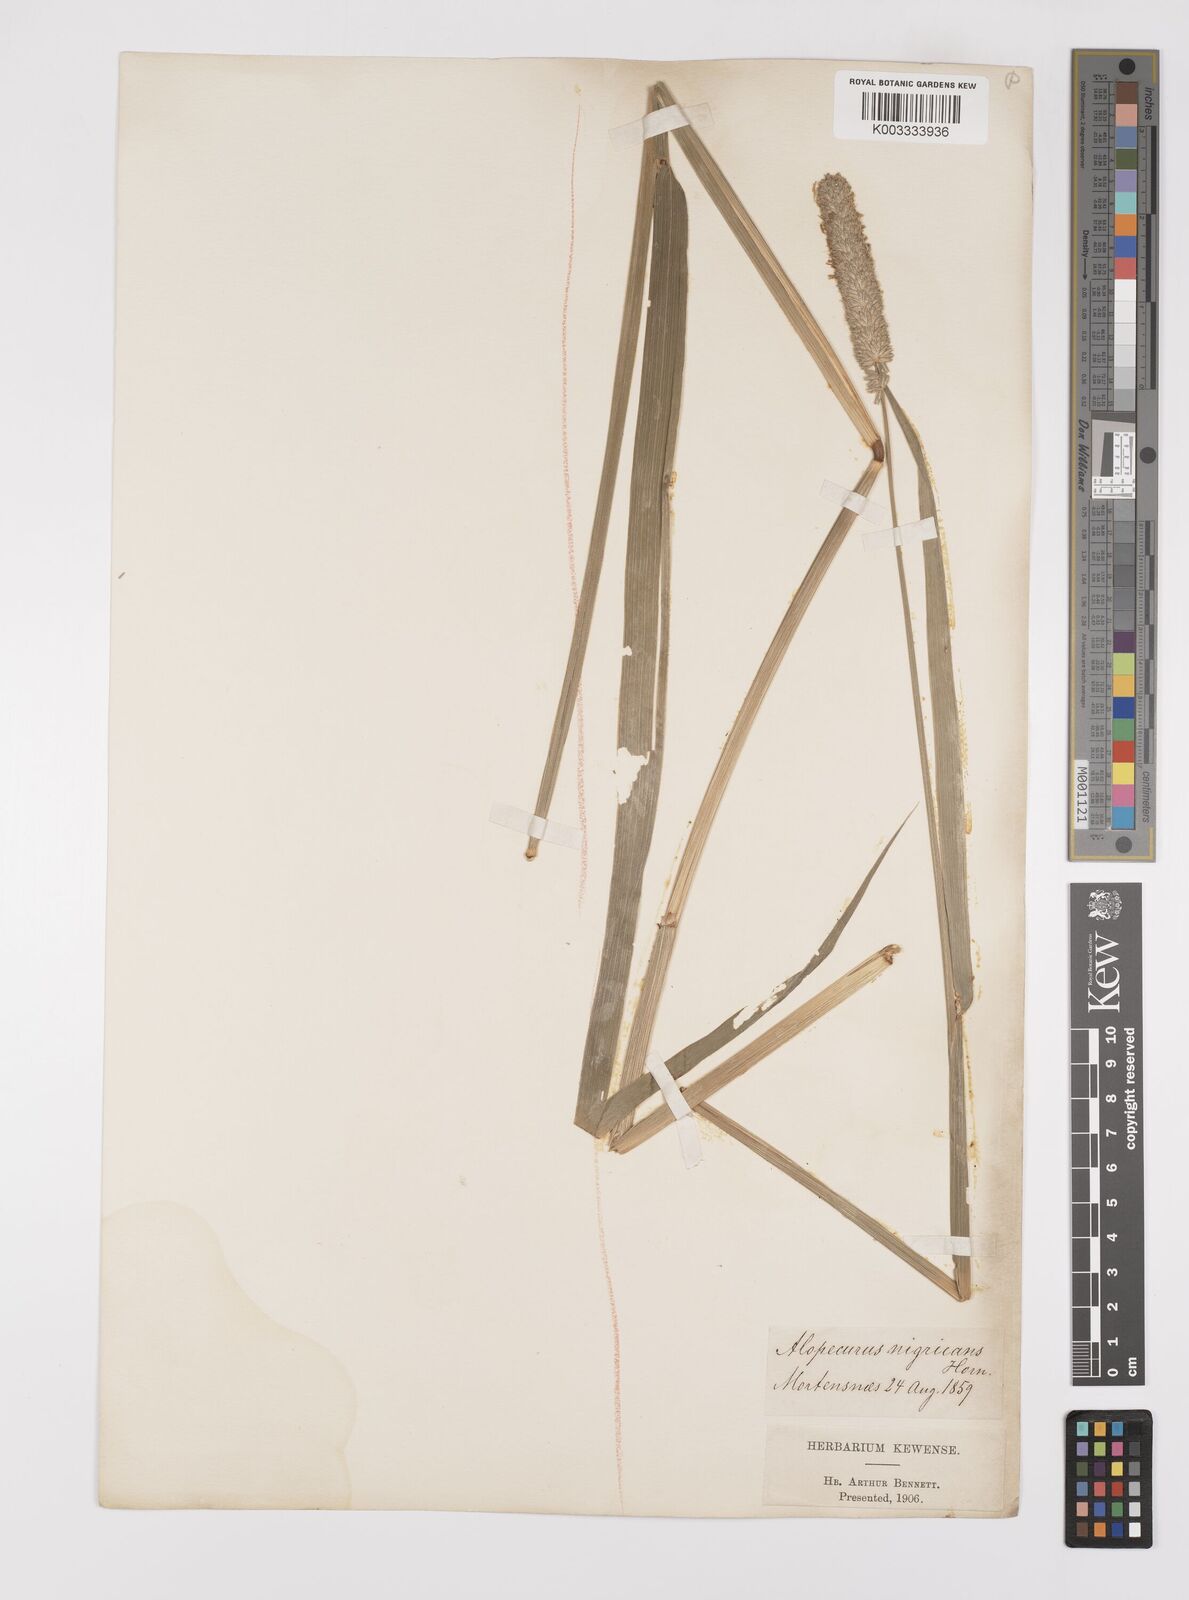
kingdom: Plantae
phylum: Tracheophyta
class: Liliopsida
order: Poales
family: Poaceae
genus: Alopecurus
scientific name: Alopecurus arundinaceus
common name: Creeping meadow foxtail
